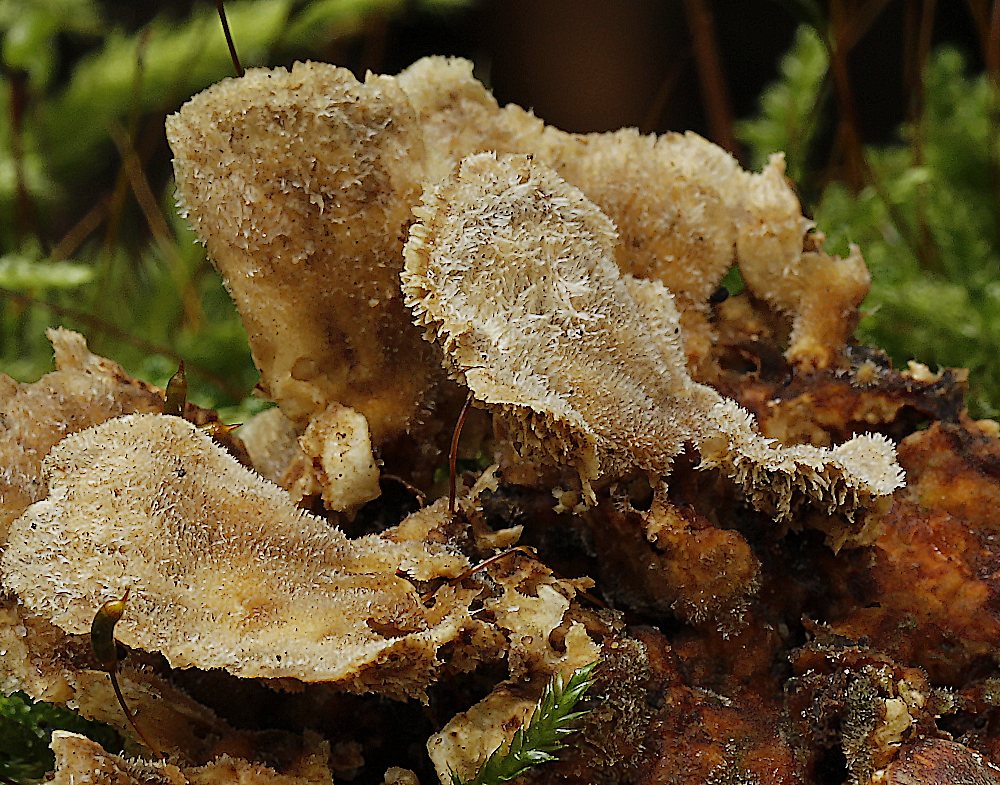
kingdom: Fungi
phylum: Basidiomycota
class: Agaricomycetes
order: Polyporales
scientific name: Polyporales
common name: poresvampordenen
